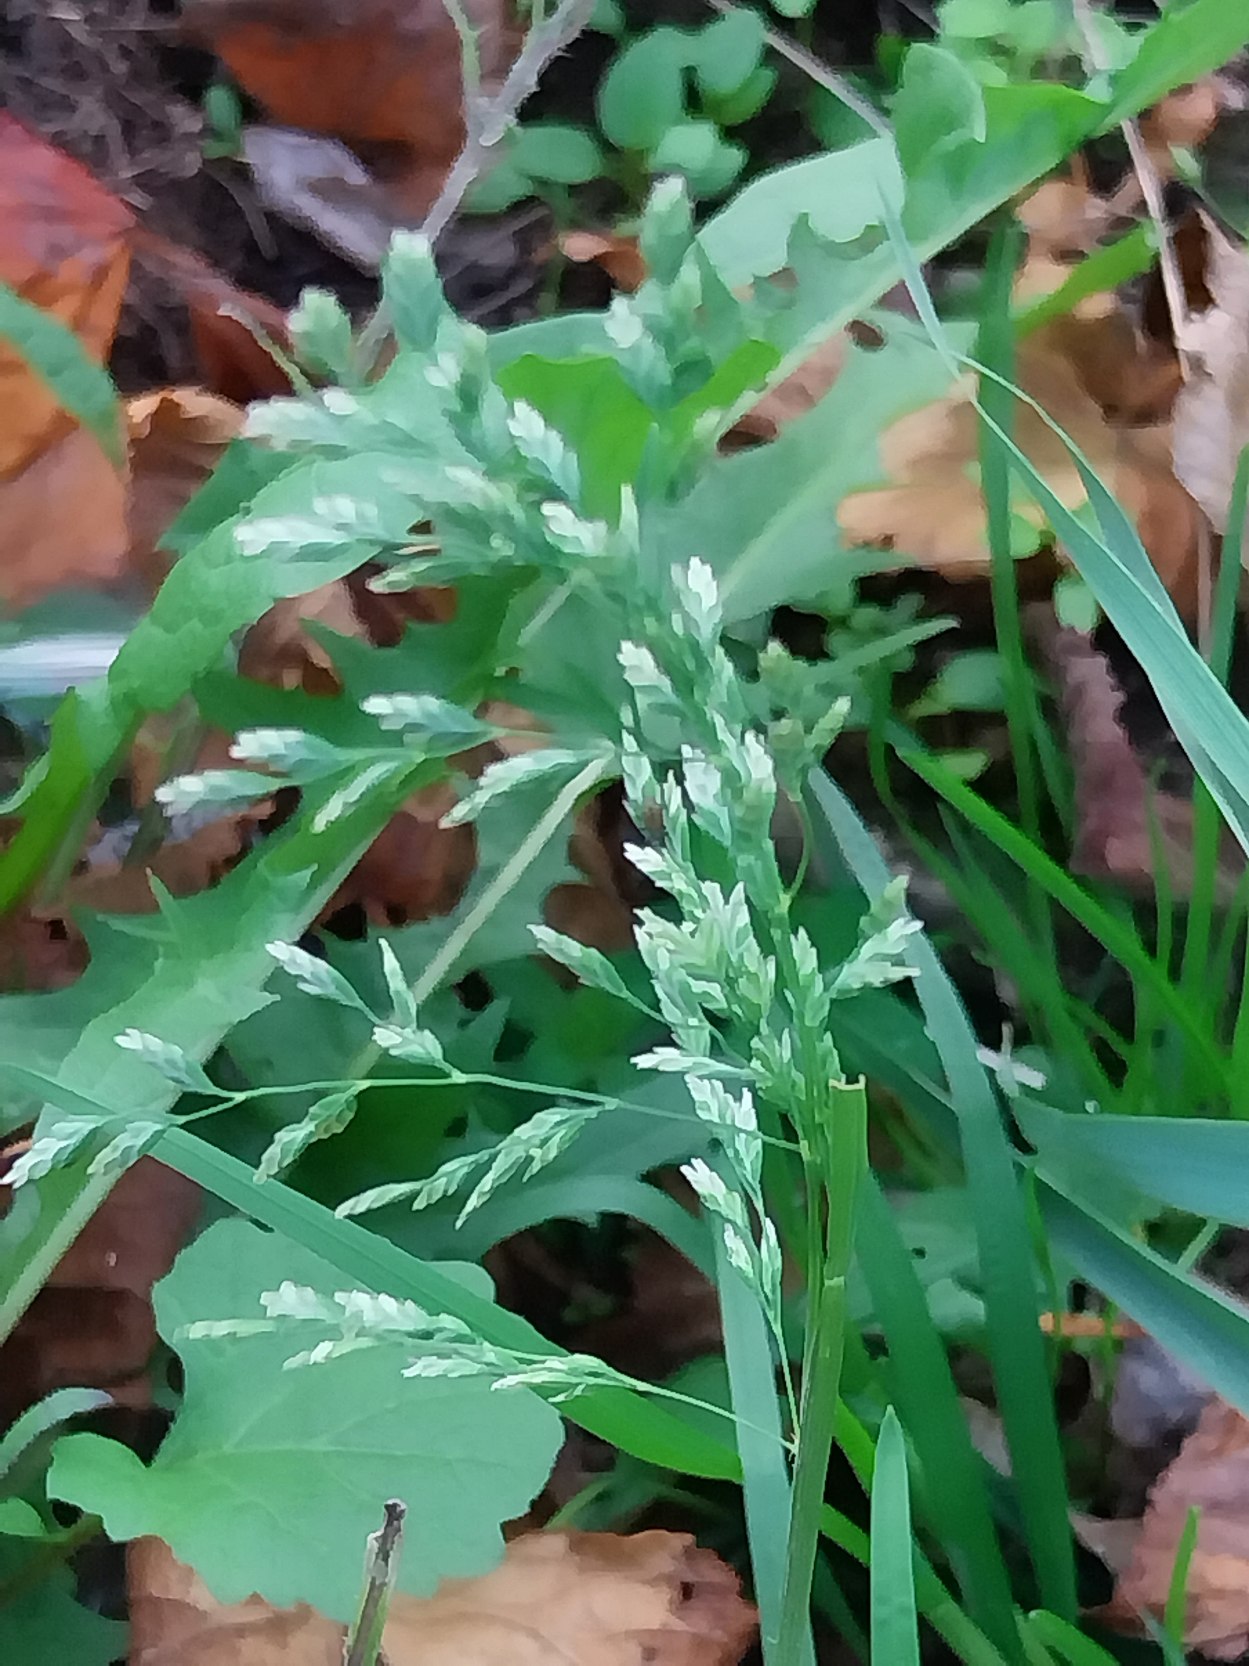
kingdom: Plantae
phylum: Tracheophyta
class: Liliopsida
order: Poales
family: Poaceae
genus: Poa
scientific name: Poa annua
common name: Enårig rapgræs
